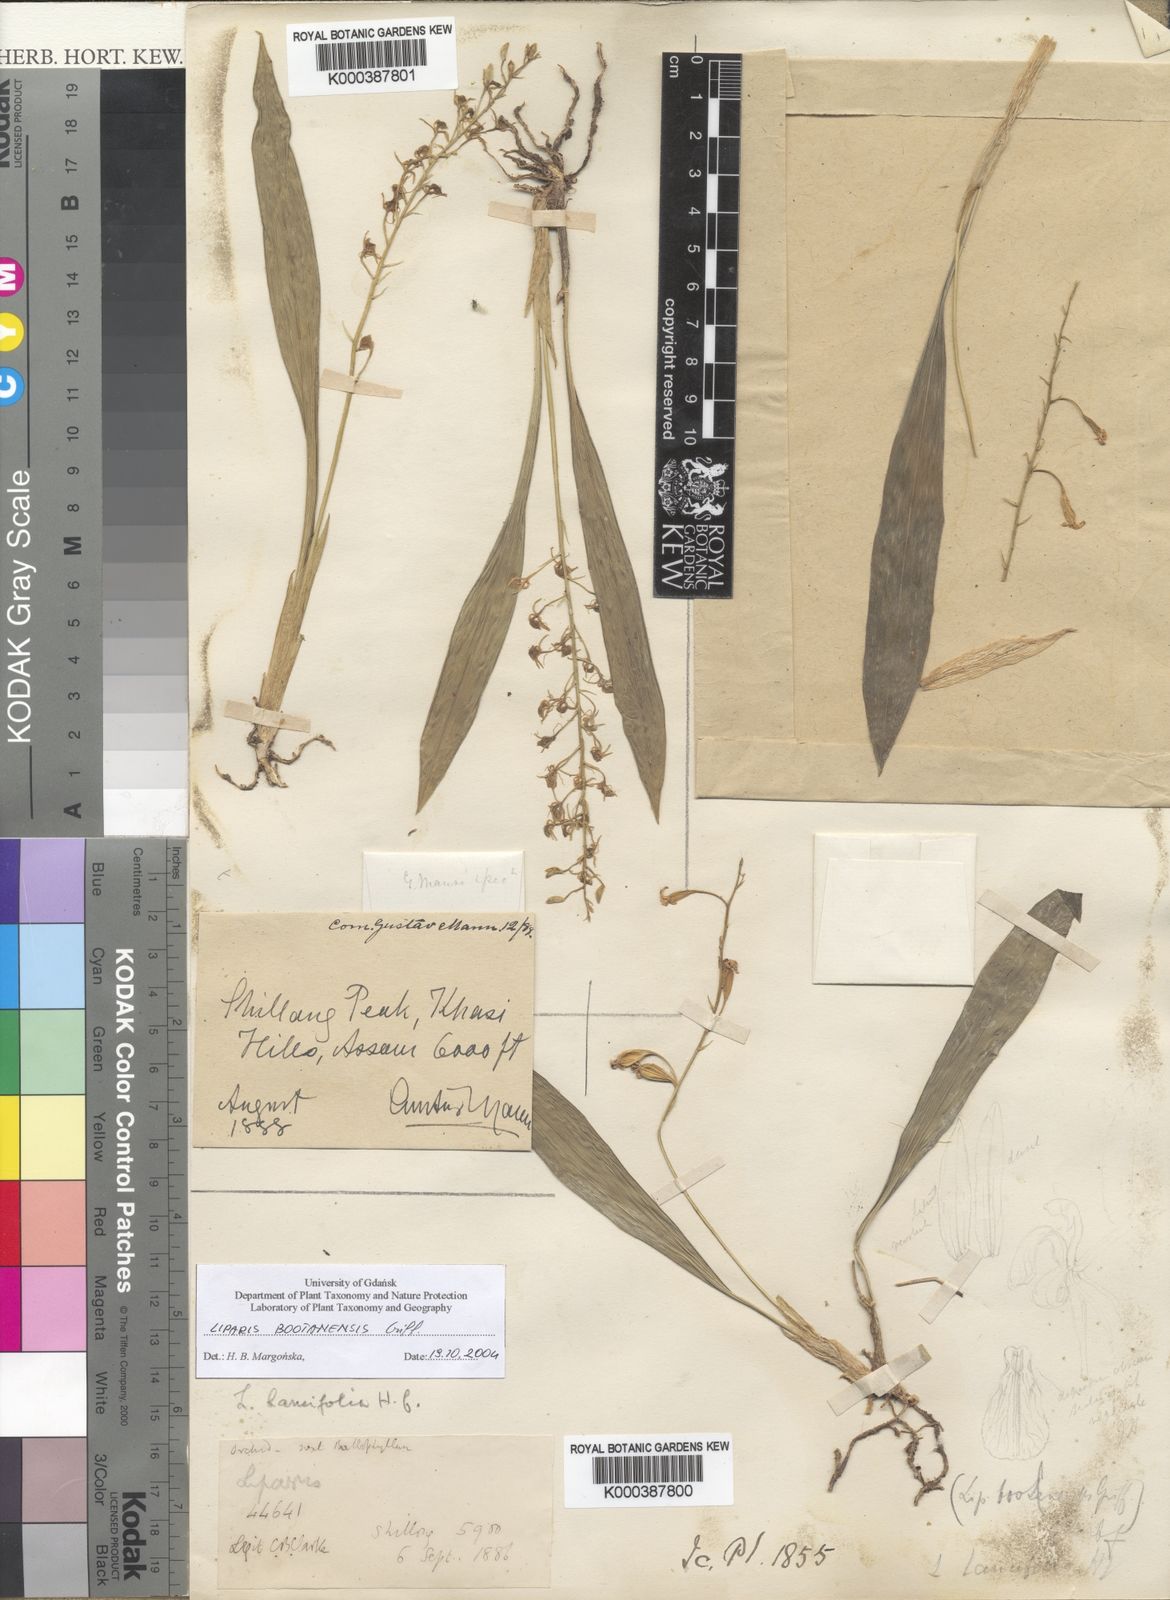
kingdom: Plantae
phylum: Tracheophyta
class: Liliopsida
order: Asparagales
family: Orchidaceae
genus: Liparis
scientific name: Liparis bootanensis
